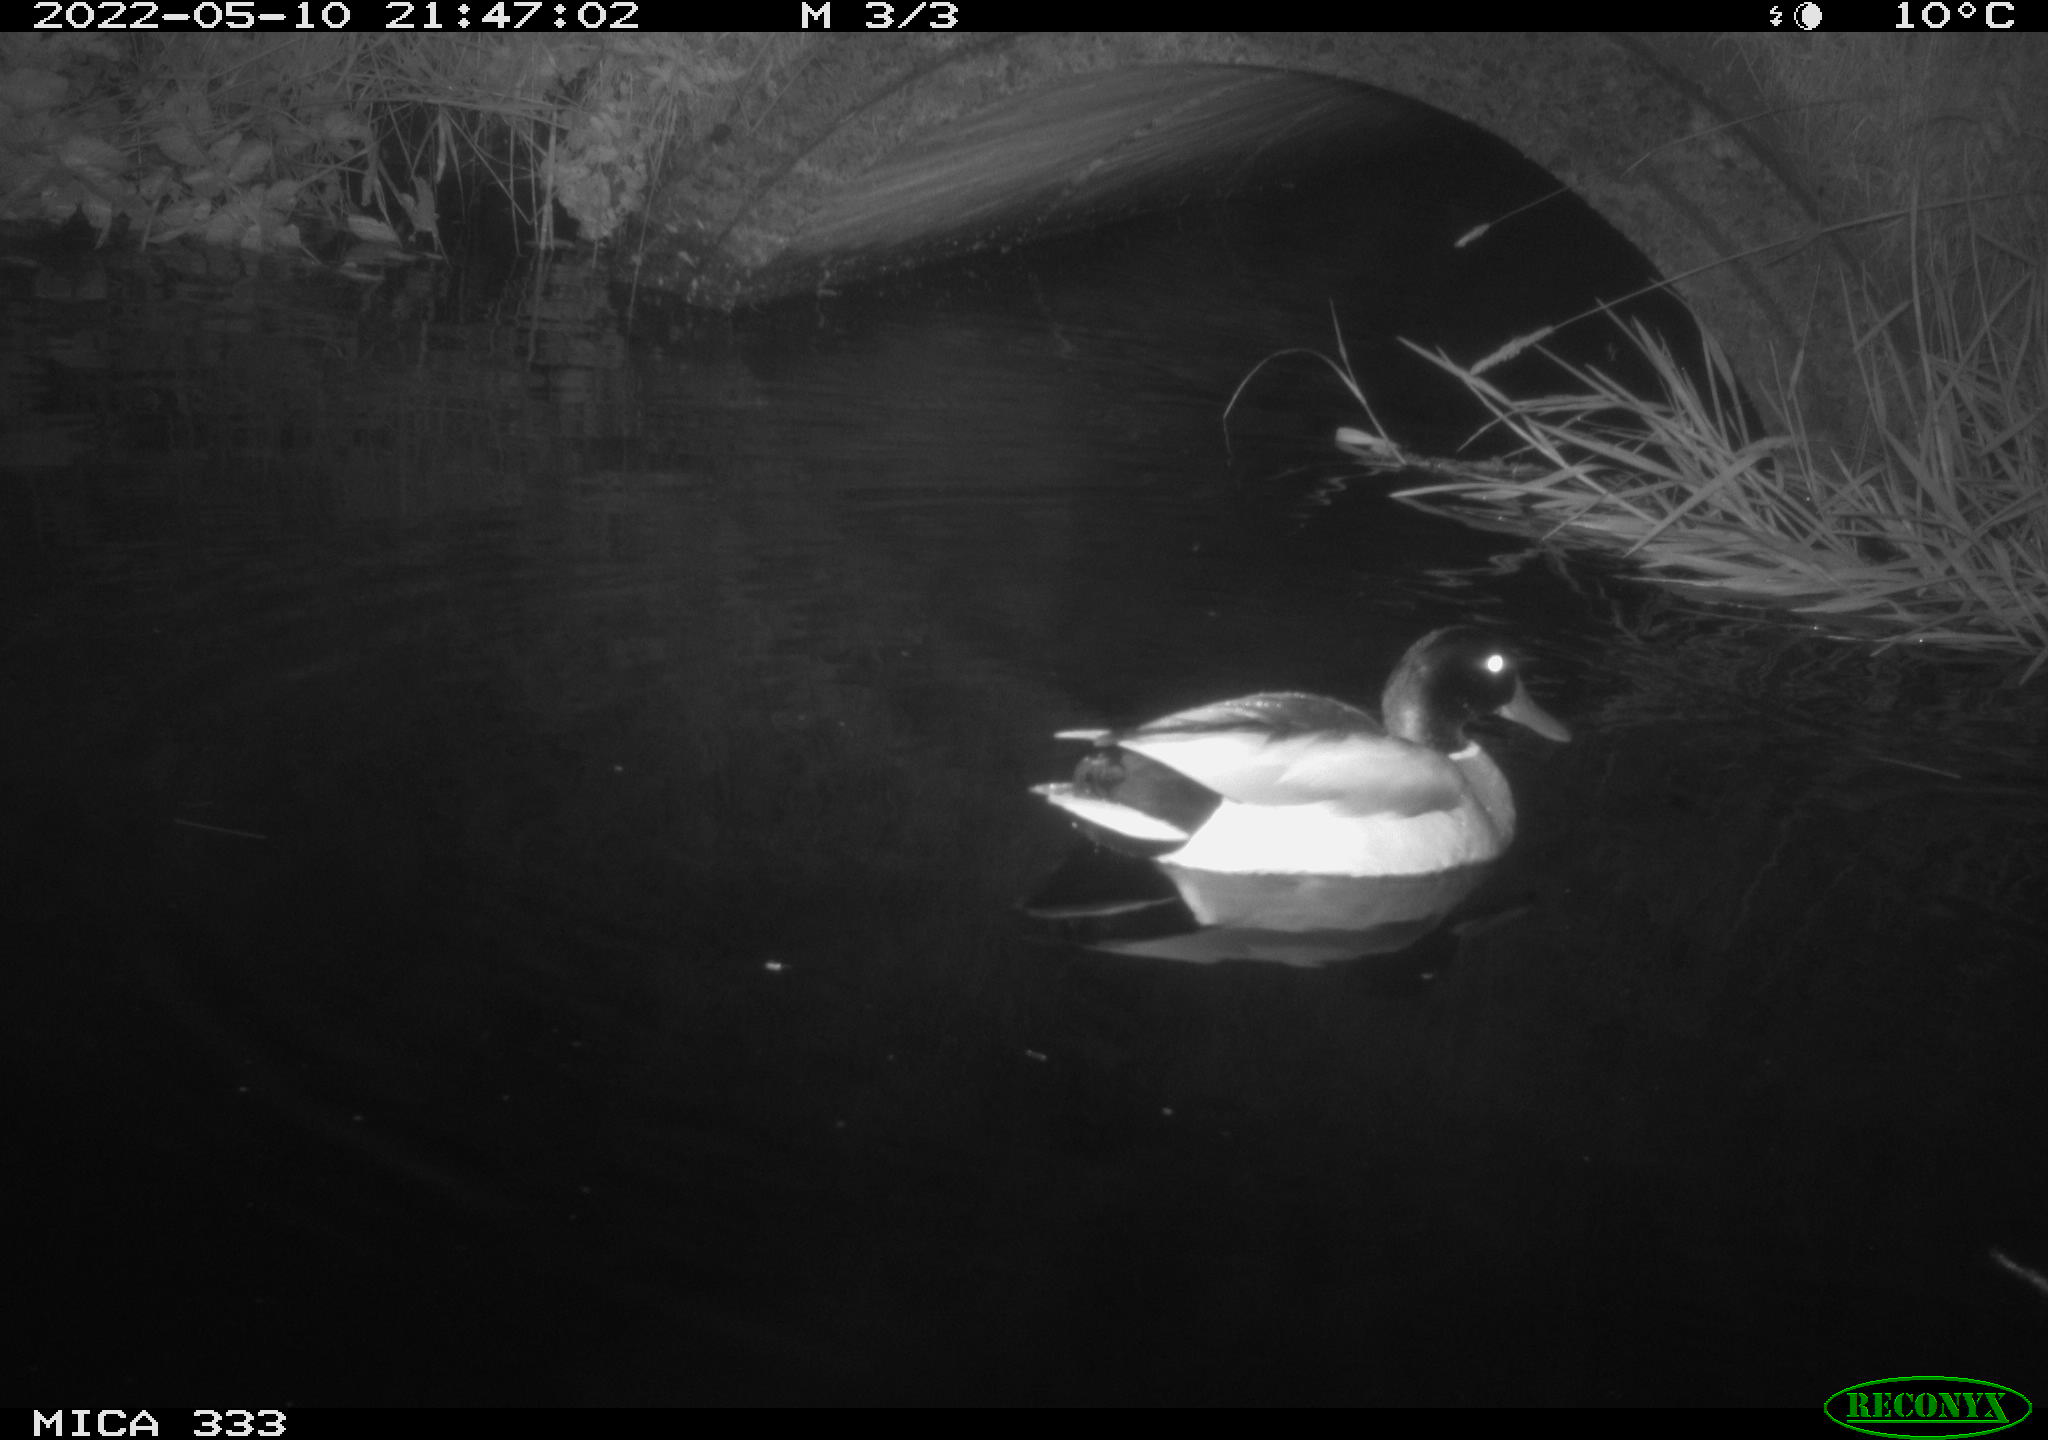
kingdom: Animalia
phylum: Chordata
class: Aves
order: Anseriformes
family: Anatidae
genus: Anas
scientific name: Anas platyrhynchos
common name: Mallard
